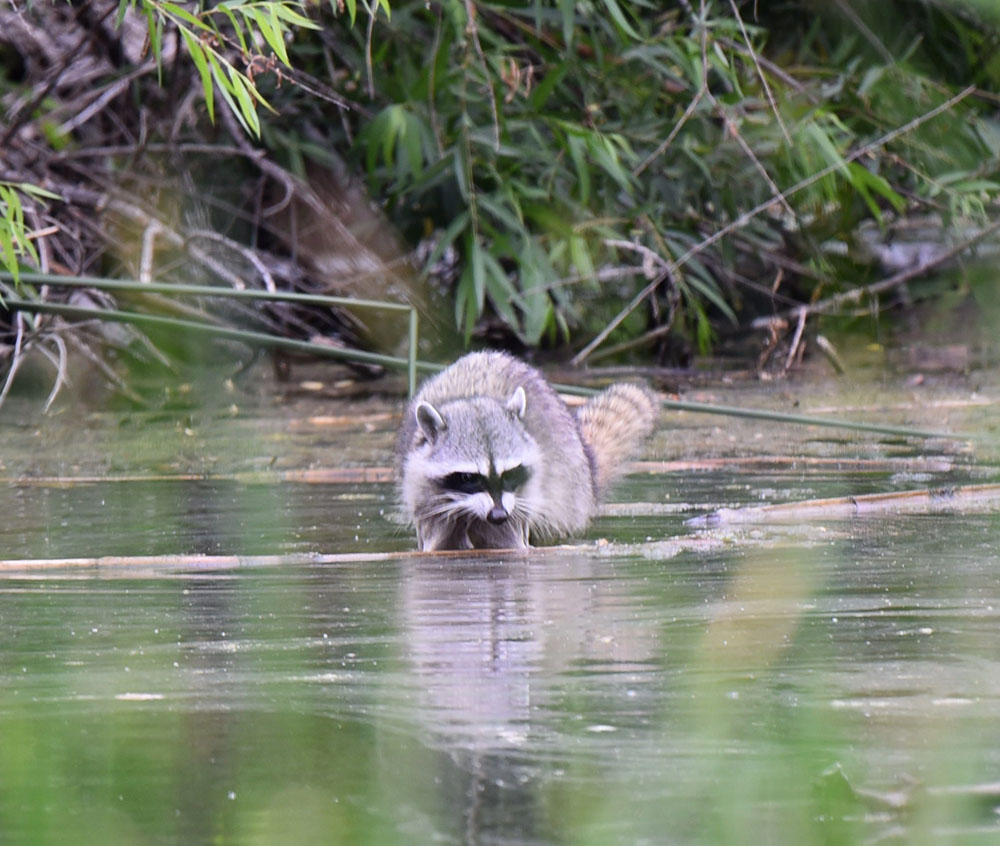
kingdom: Animalia
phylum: Chordata
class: Mammalia
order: Carnivora
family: Procyonidae
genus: Procyon
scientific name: Procyon lotor
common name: Raccoon
